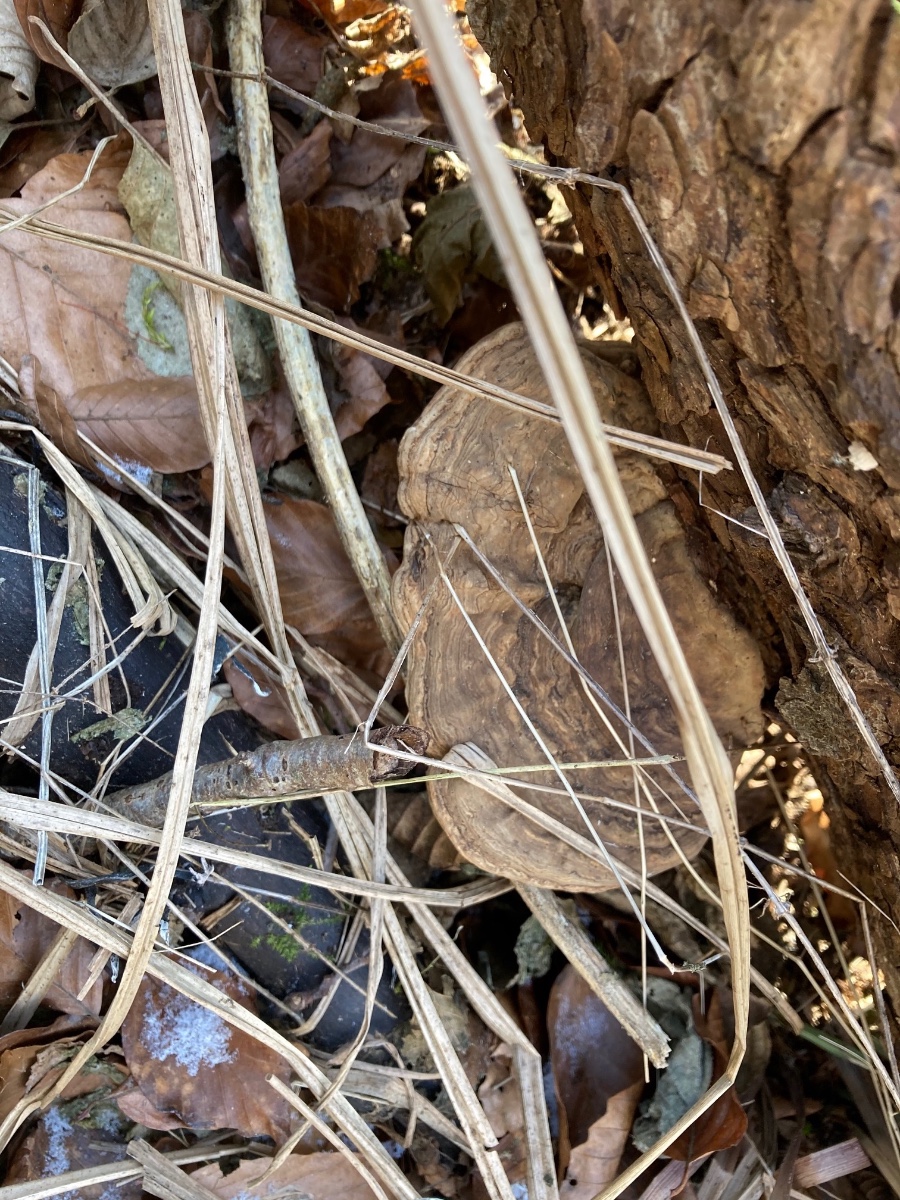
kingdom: Fungi
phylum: Basidiomycota
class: Agaricomycetes
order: Polyporales
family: Polyporaceae
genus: Ganoderma
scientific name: Ganoderma applanatum
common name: flad lakporesvamp
